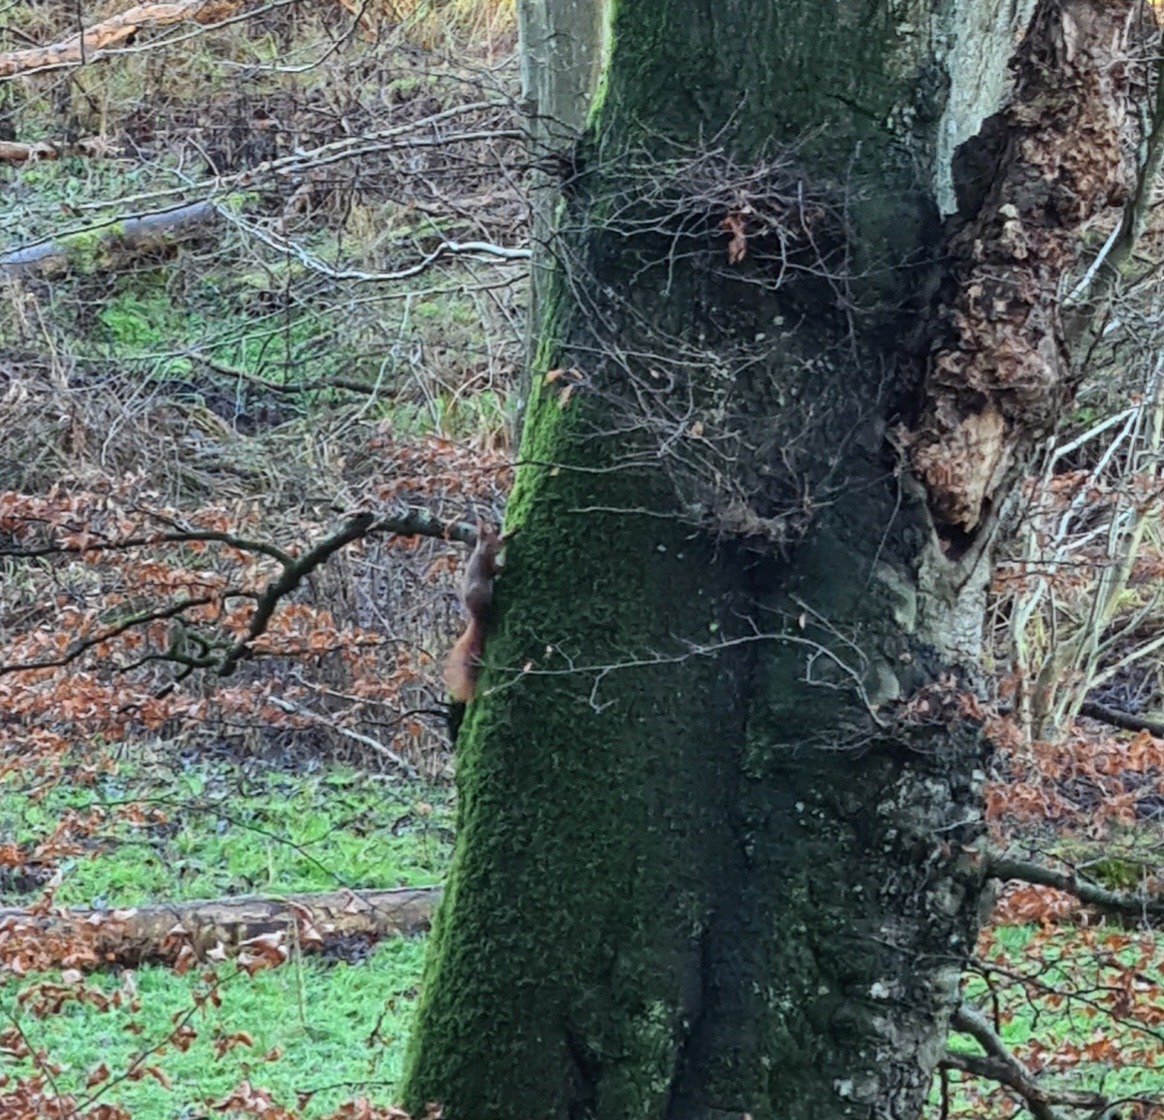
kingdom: Animalia
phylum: Chordata
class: Mammalia
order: Rodentia
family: Sciuridae
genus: Sciurus
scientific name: Sciurus vulgaris
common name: Egern
